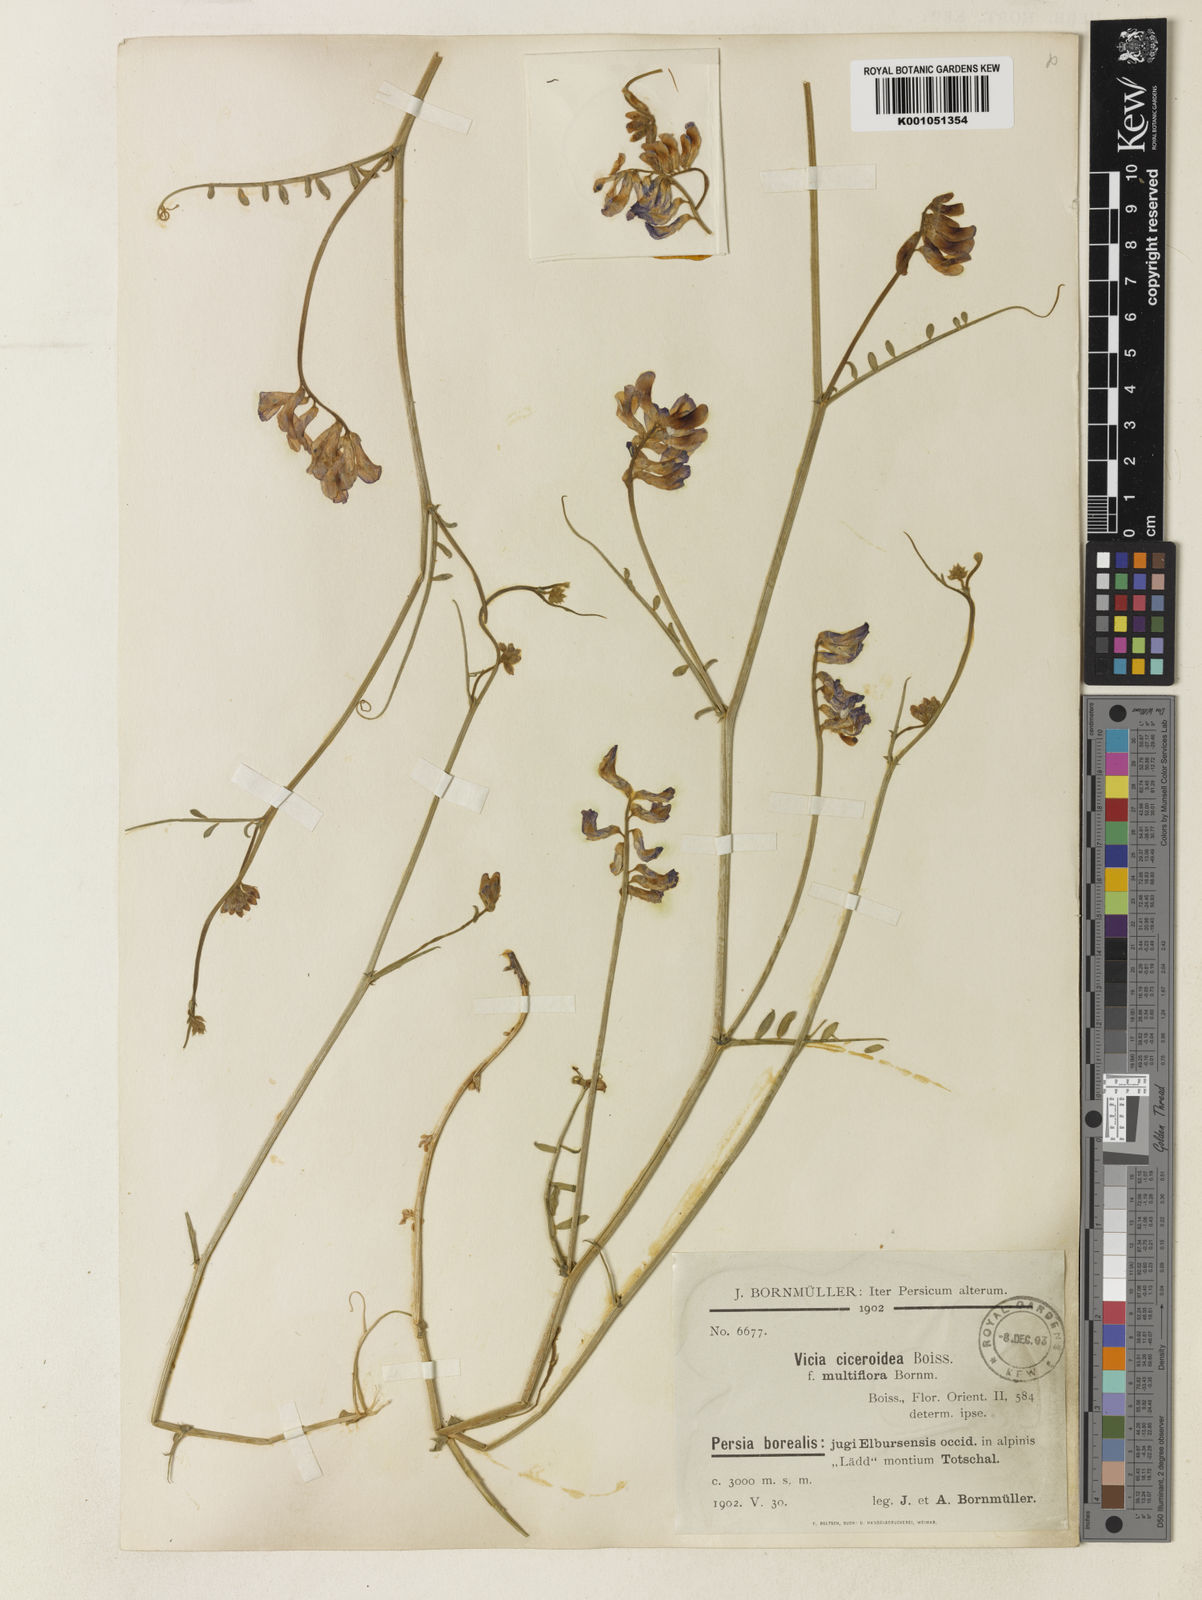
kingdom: Plantae
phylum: Tracheophyta
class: Magnoliopsida
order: Fabales
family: Fabaceae
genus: Vicia
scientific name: Vicia ciceroidea
